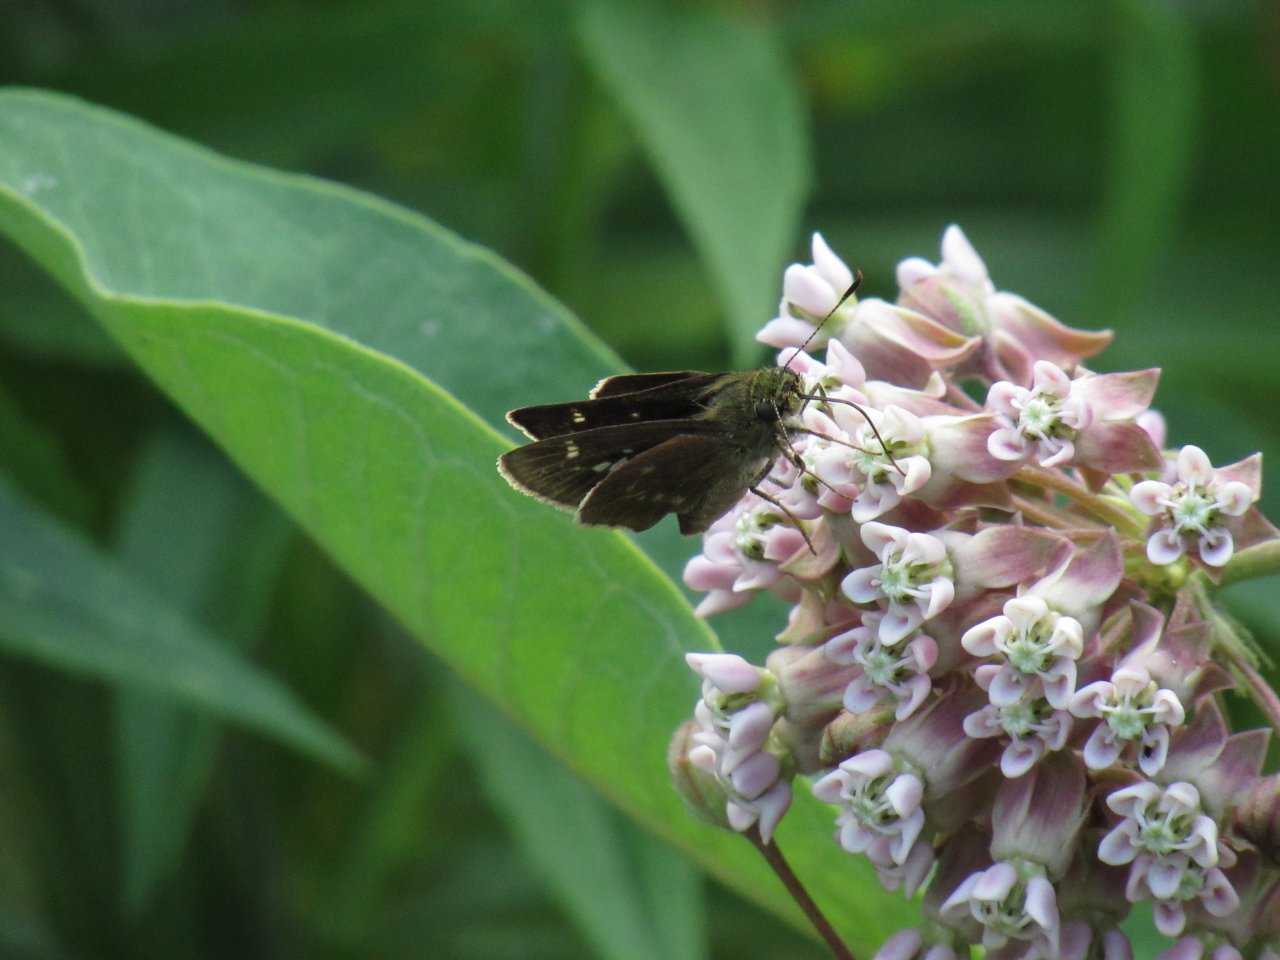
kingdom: Animalia
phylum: Arthropoda
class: Insecta
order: Lepidoptera
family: Hesperiidae
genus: Vernia
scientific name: Vernia verna
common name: Little Glassywing
